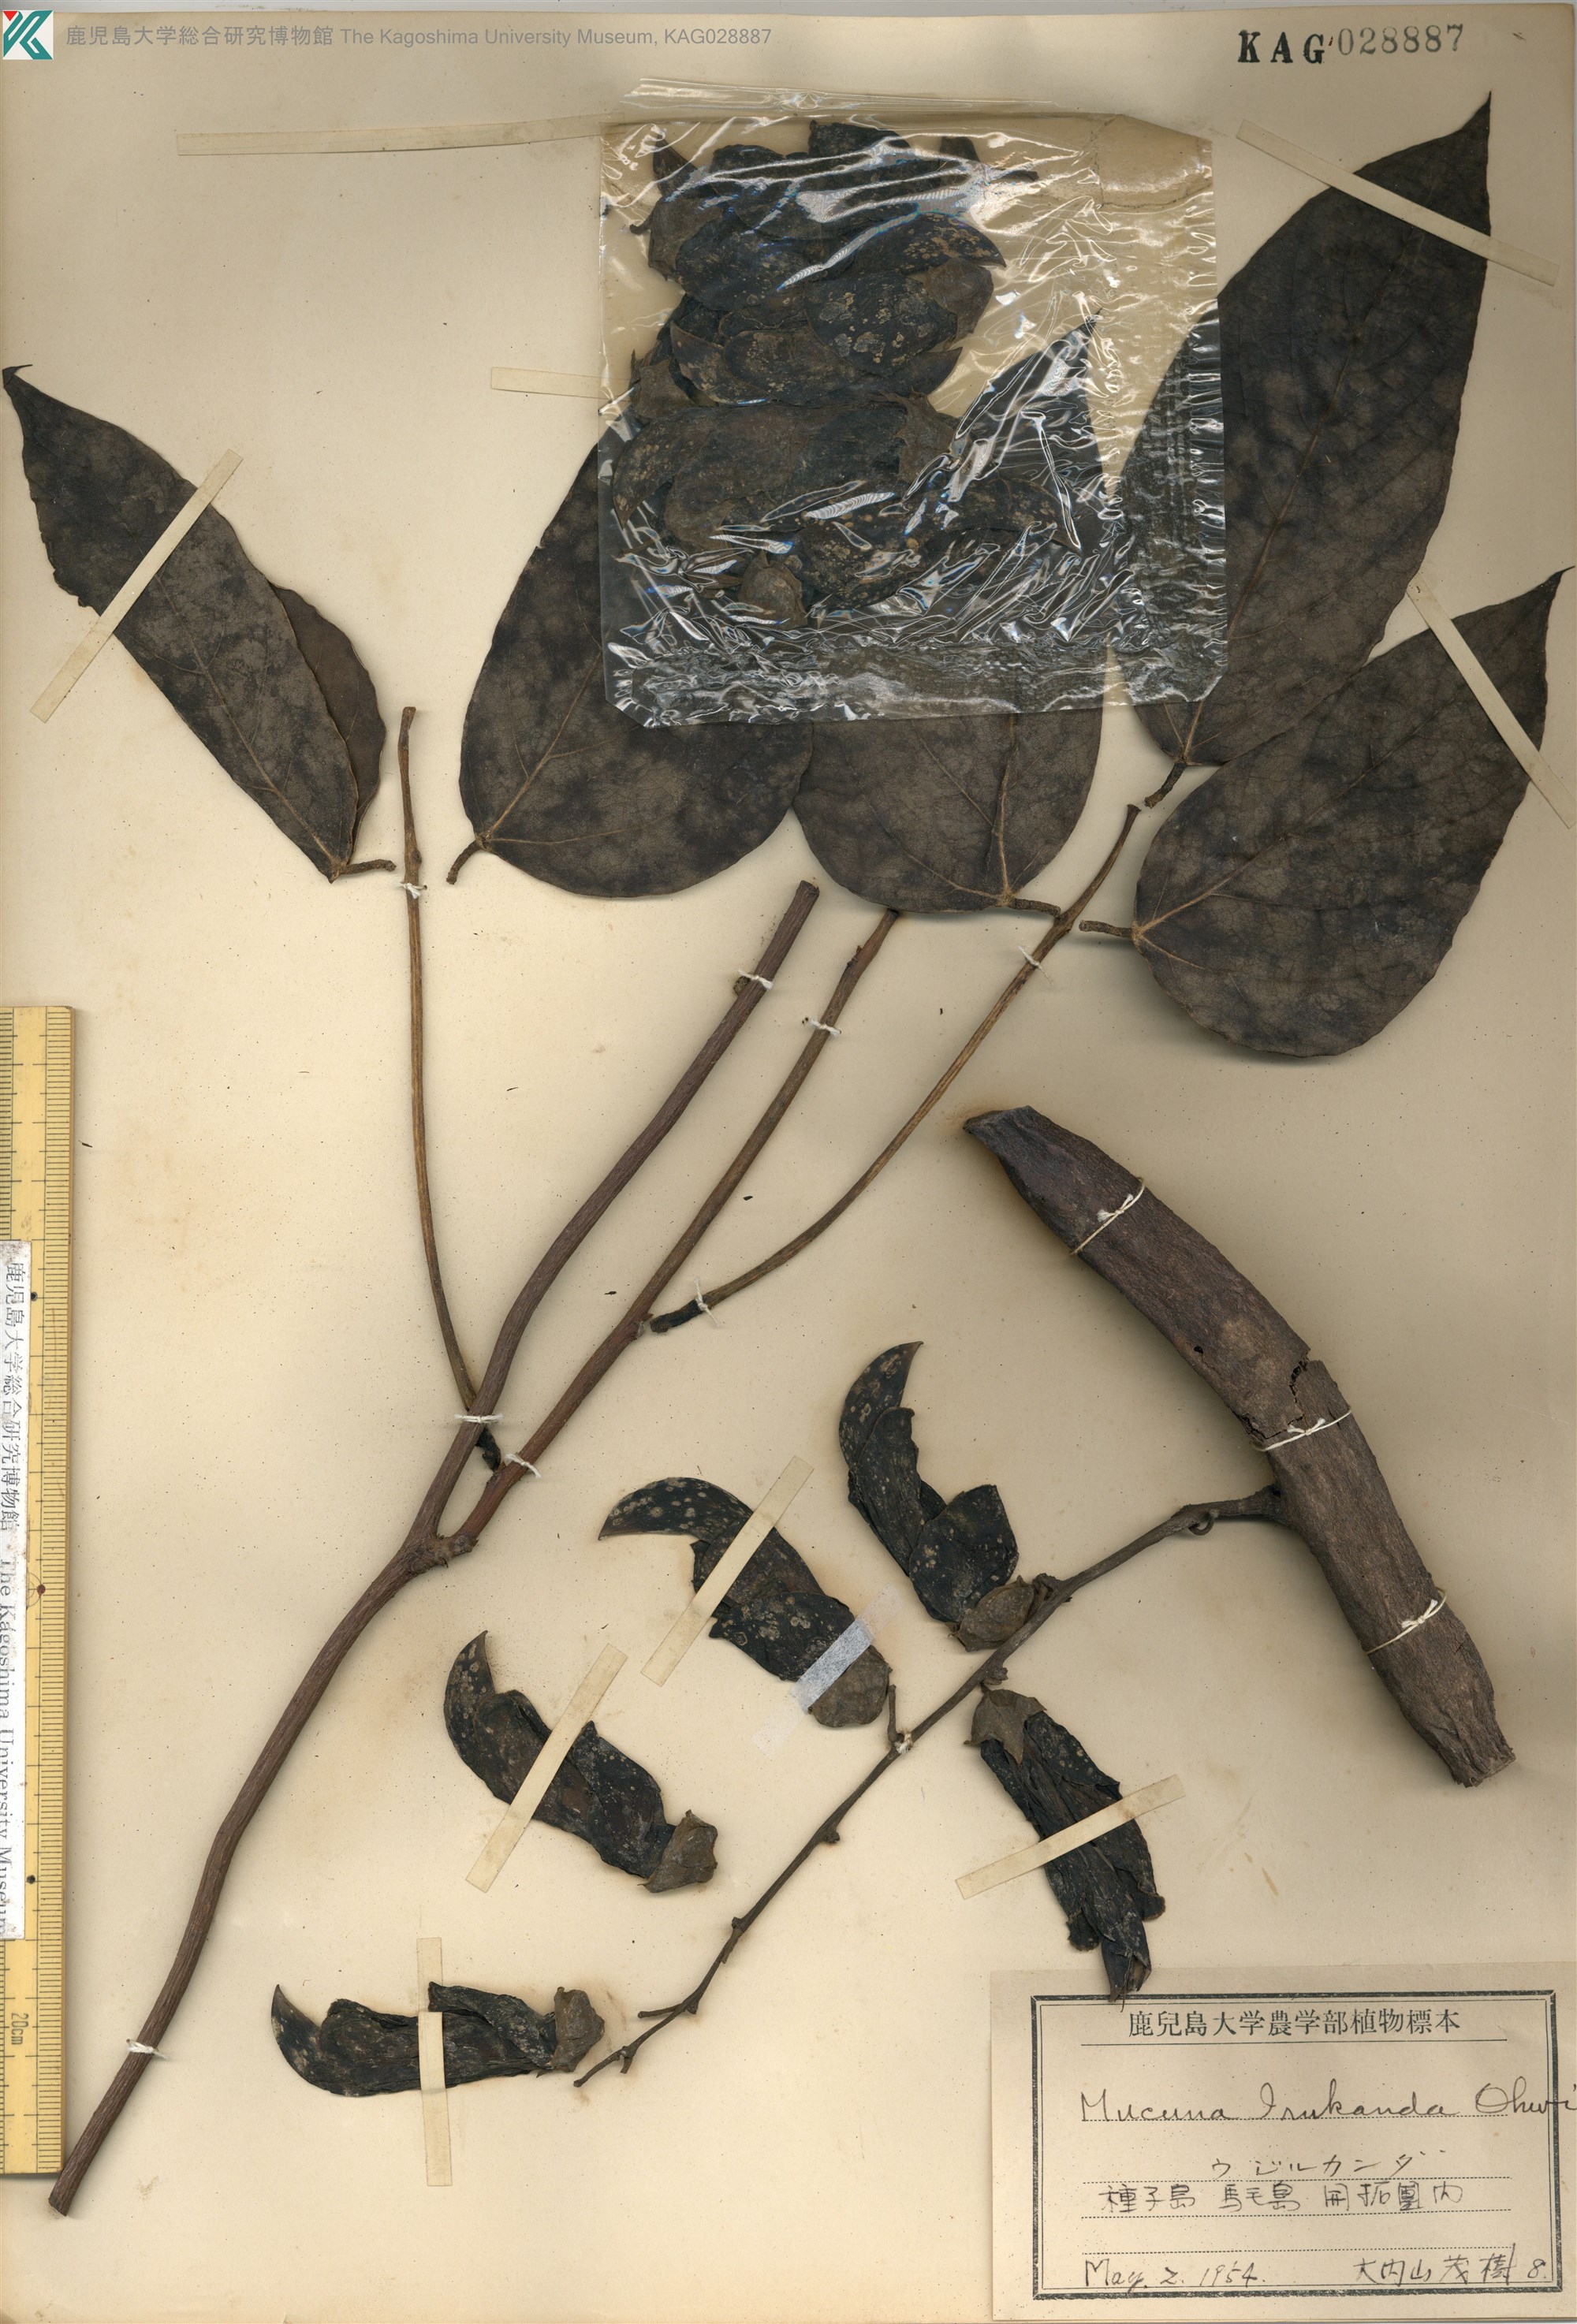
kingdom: Plantae
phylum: Tracheophyta
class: Magnoliopsida
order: Fabales
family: Fabaceae
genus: Mucuna
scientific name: Mucuna macrocarpa
